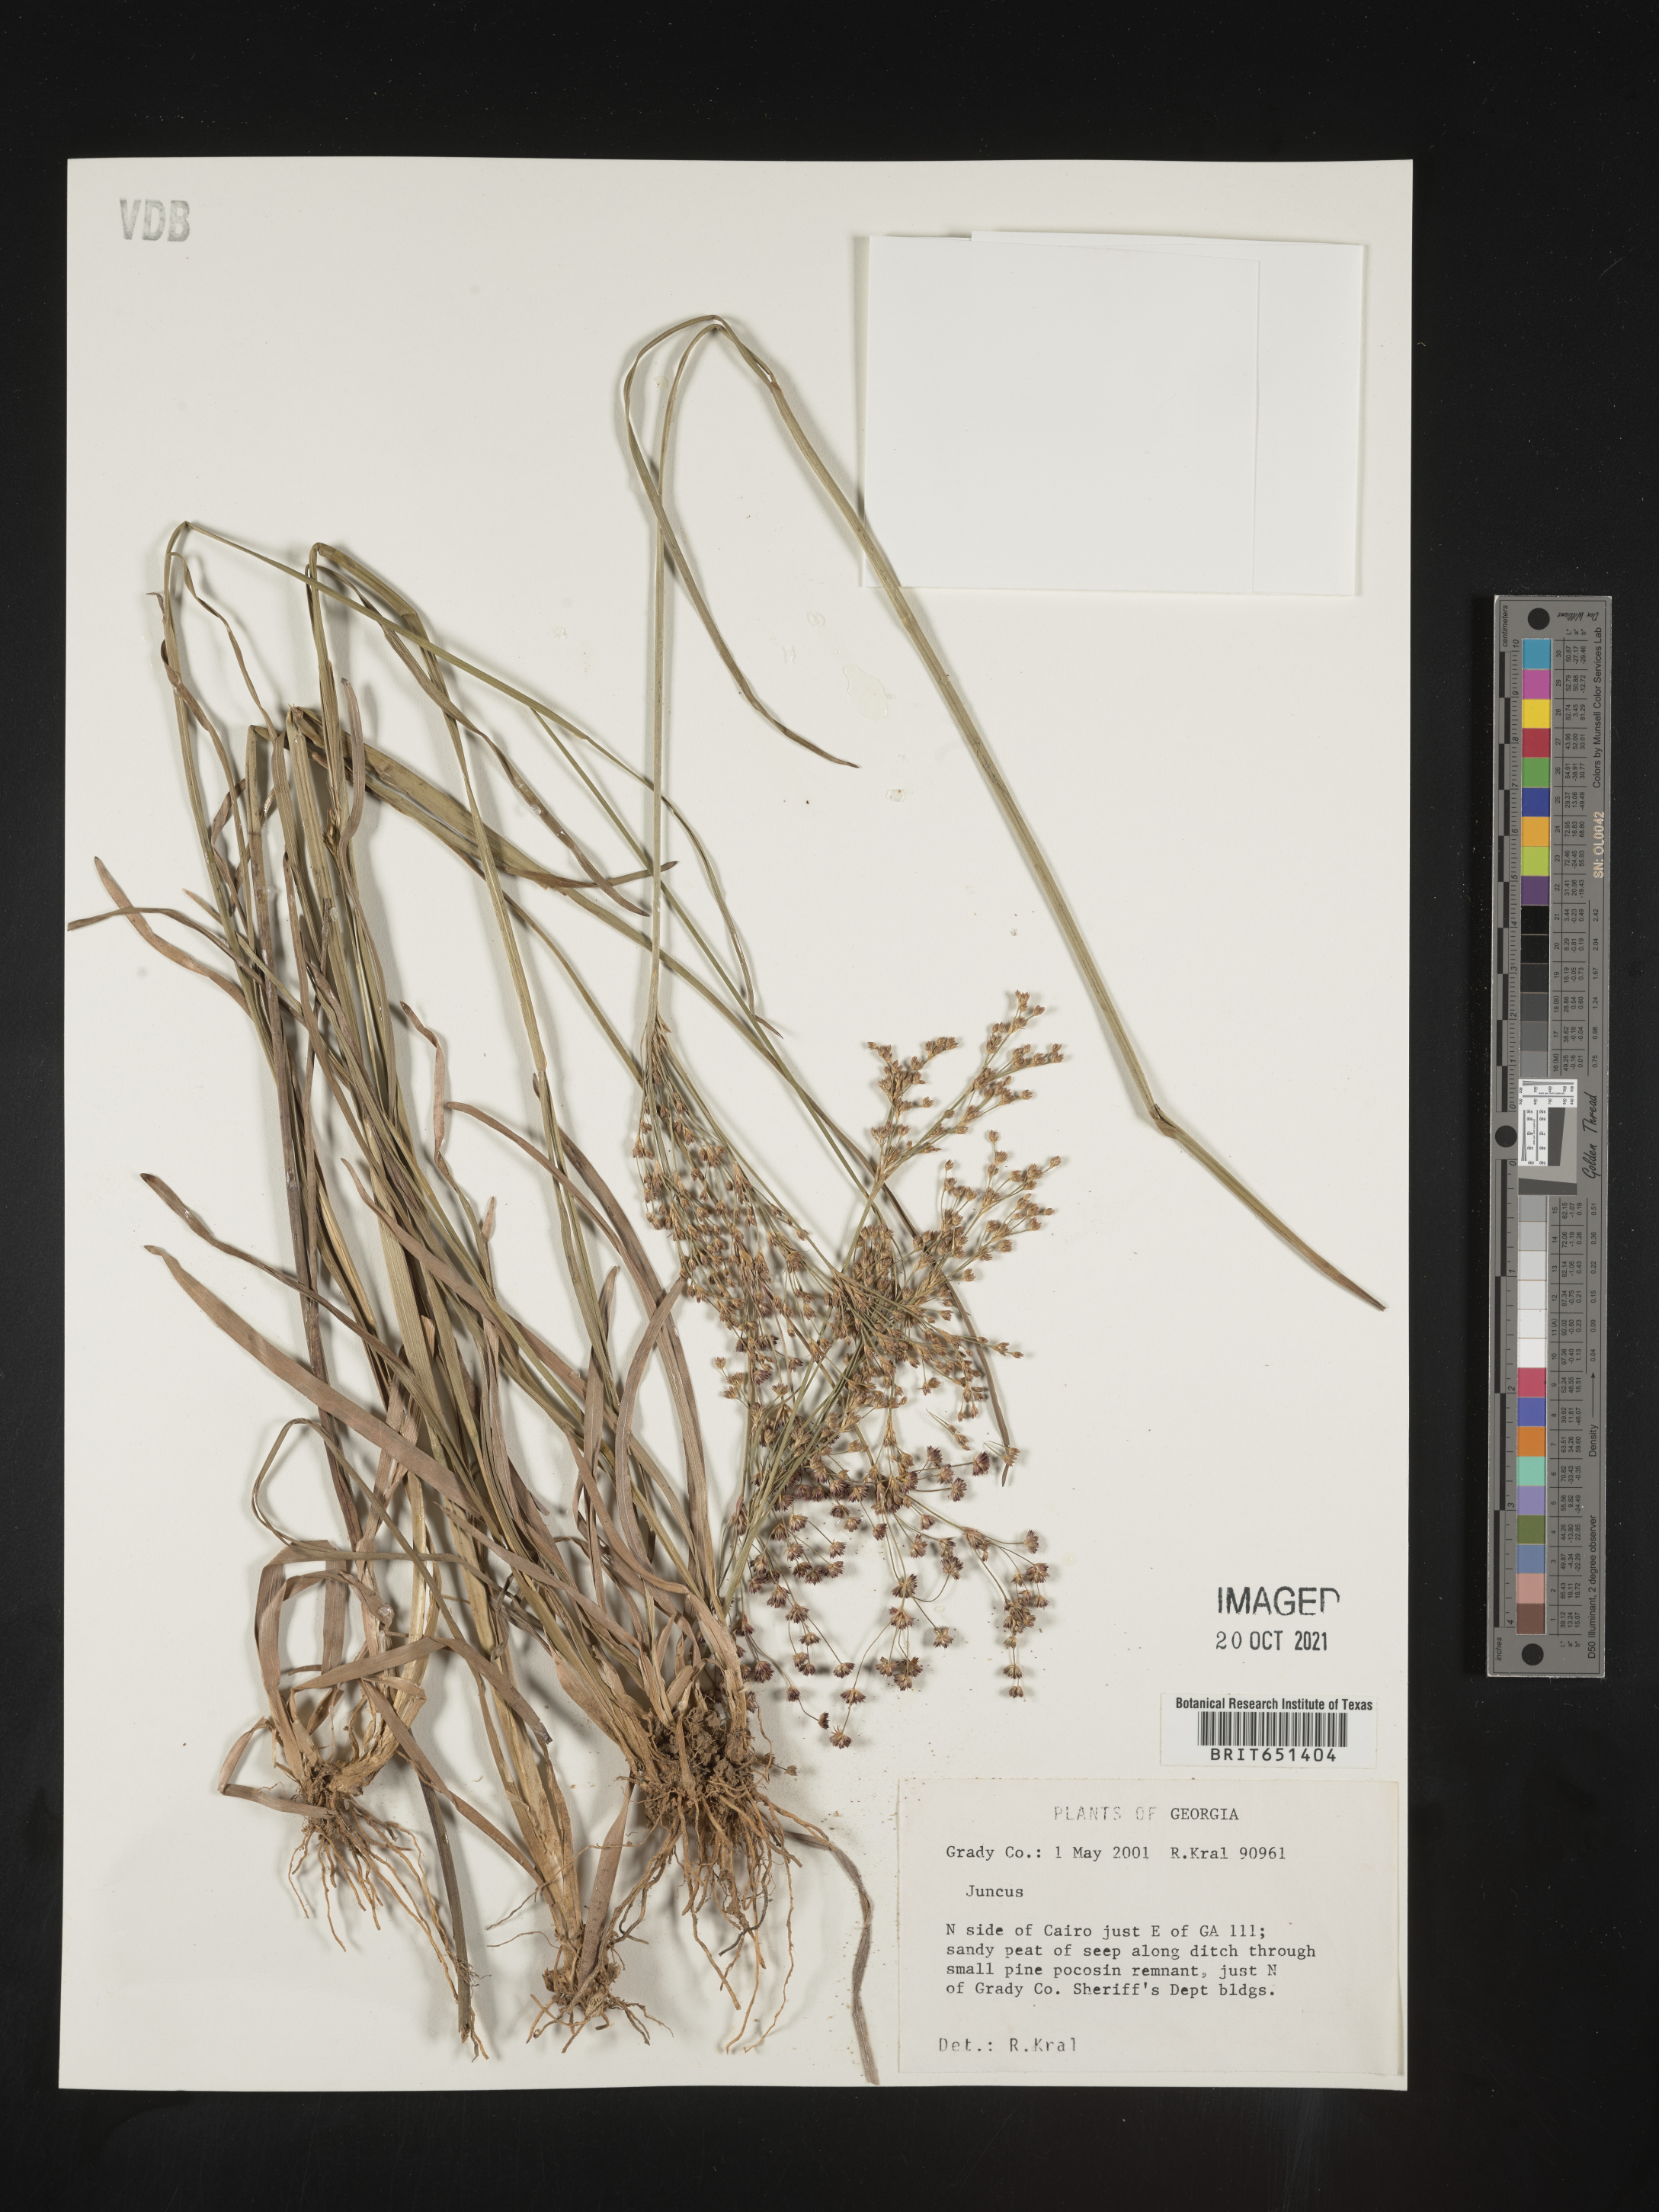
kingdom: Plantae
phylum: Tracheophyta
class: Liliopsida
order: Poales
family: Juncaceae
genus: Juncus
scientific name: Juncus
